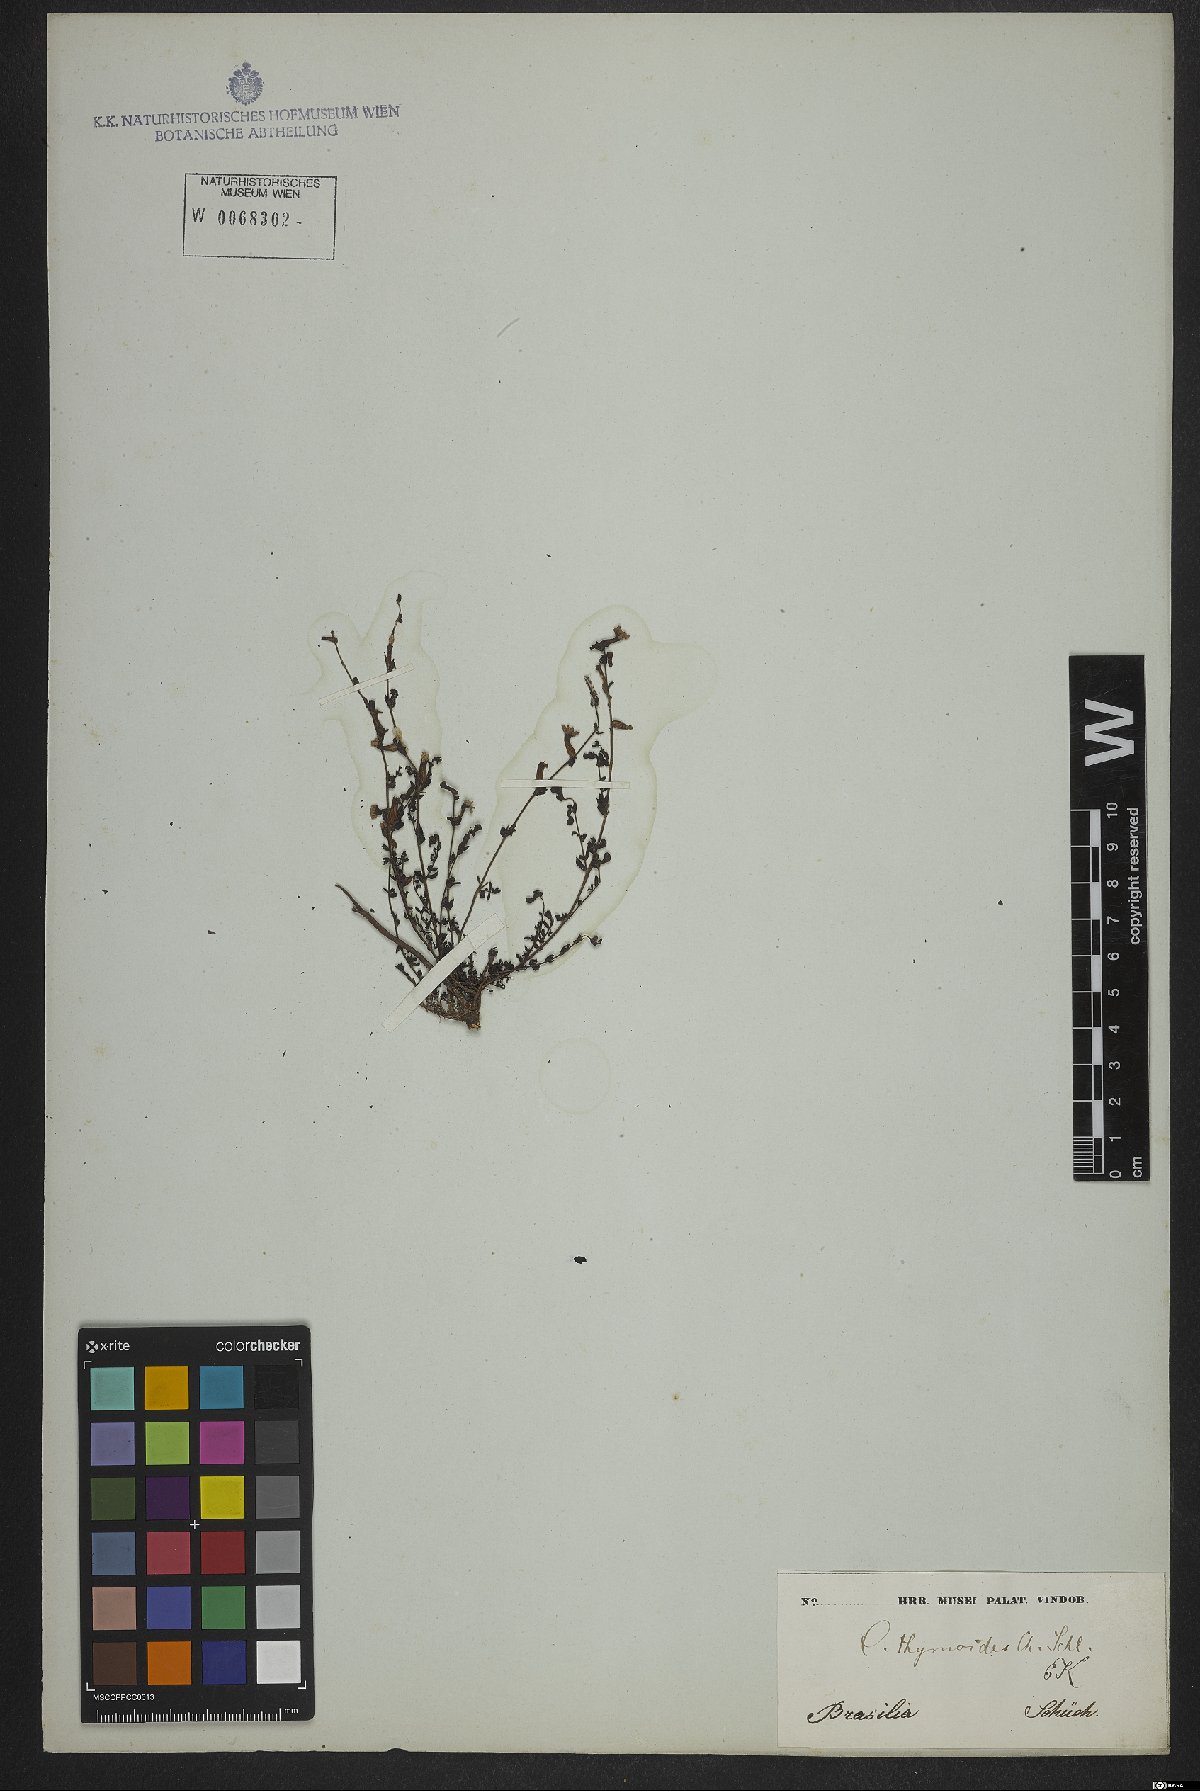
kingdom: Plantae
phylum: Tracheophyta
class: Magnoliopsida
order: Myrtales
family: Lythraceae
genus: Cuphea
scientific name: Cuphea thymoides
